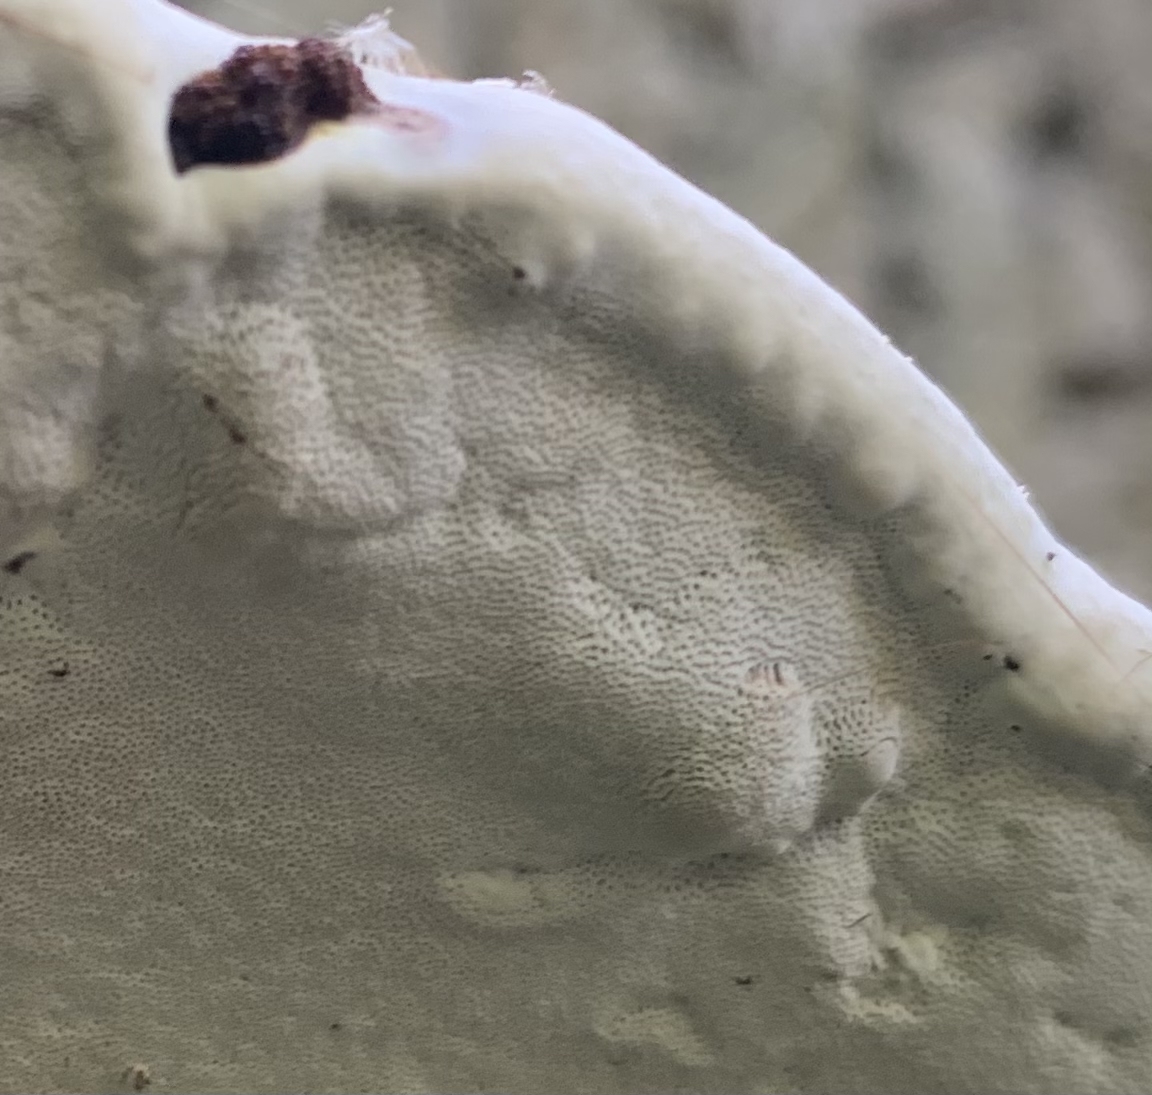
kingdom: Fungi
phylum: Basidiomycota
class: Agaricomycetes
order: Polyporales
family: Polyporaceae
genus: Ganoderma
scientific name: Ganoderma applanatum
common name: flad lakporesvamp
